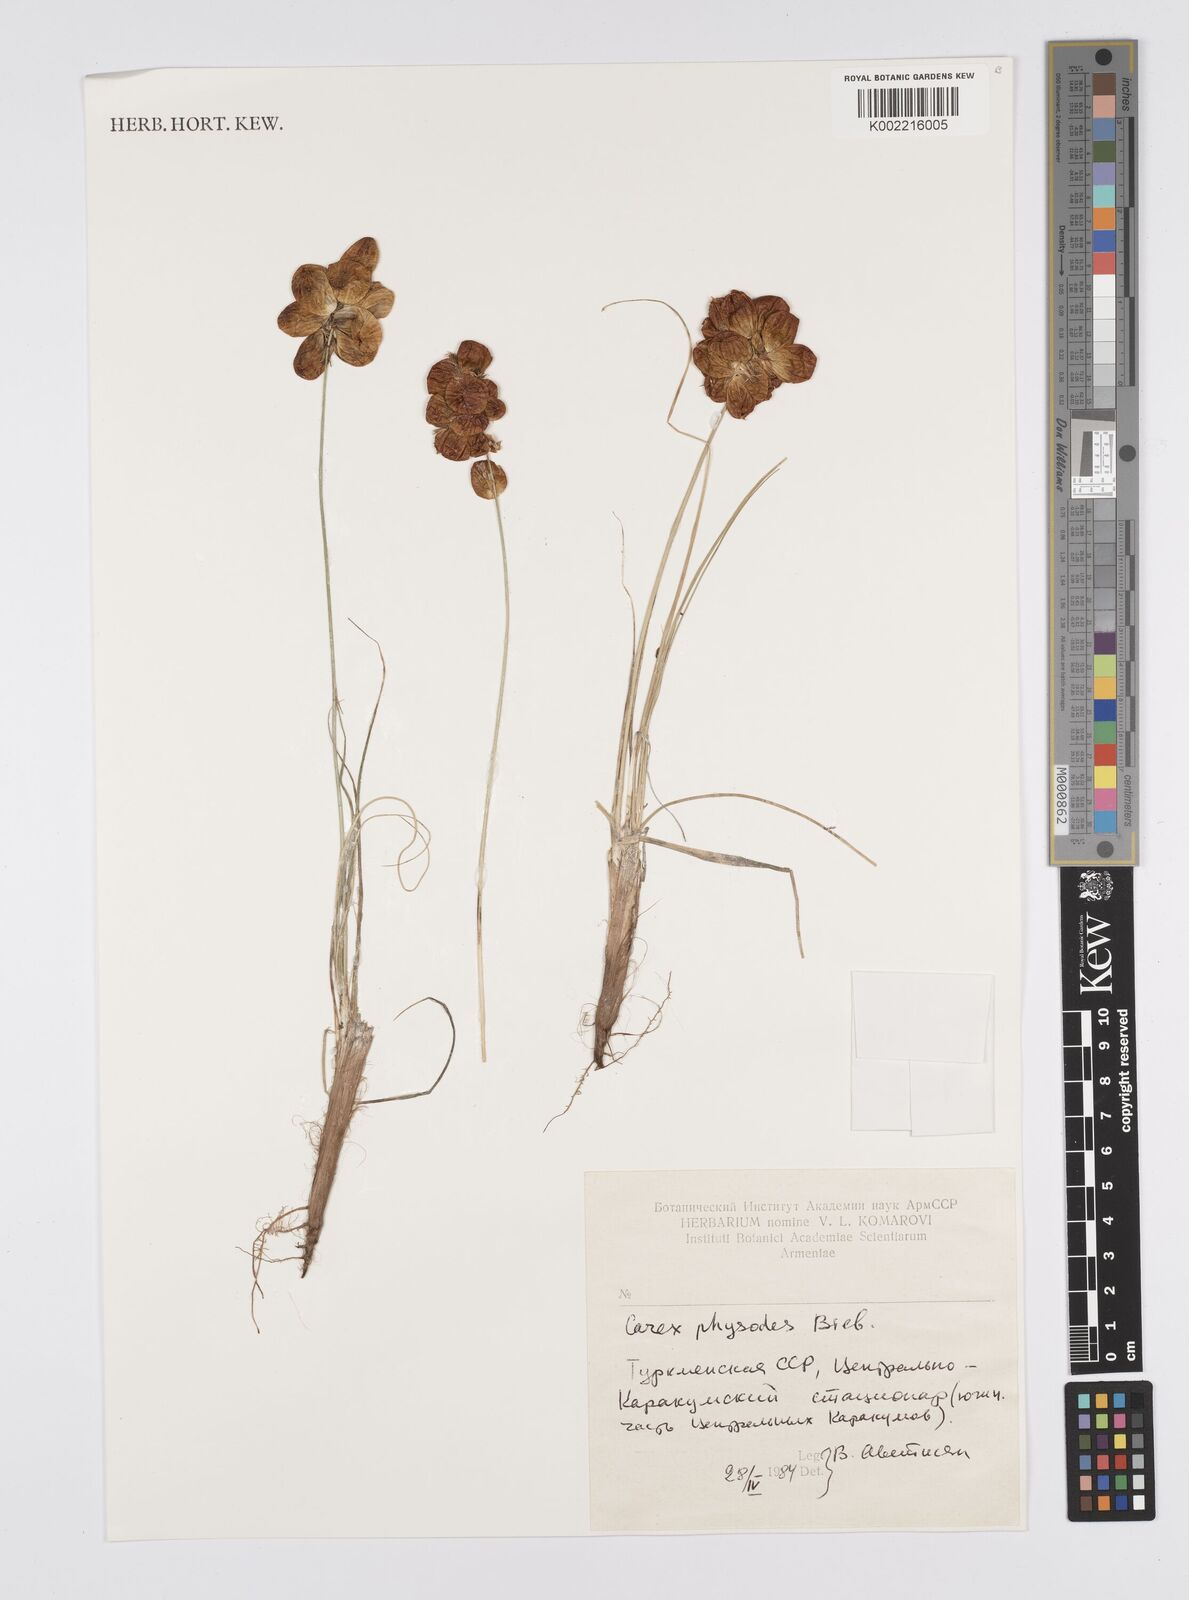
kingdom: Plantae
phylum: Tracheophyta
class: Liliopsida
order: Poales
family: Cyperaceae
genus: Carex
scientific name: Carex physodes
